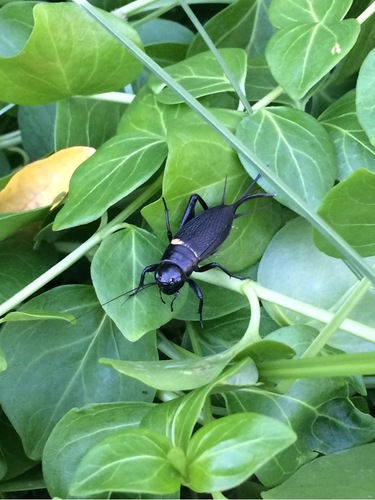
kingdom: Animalia
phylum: Arthropoda
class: Insecta
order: Orthoptera
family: Gryllidae
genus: Gryllus
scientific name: Gryllus bimaculatus
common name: Two-spotted cricket
